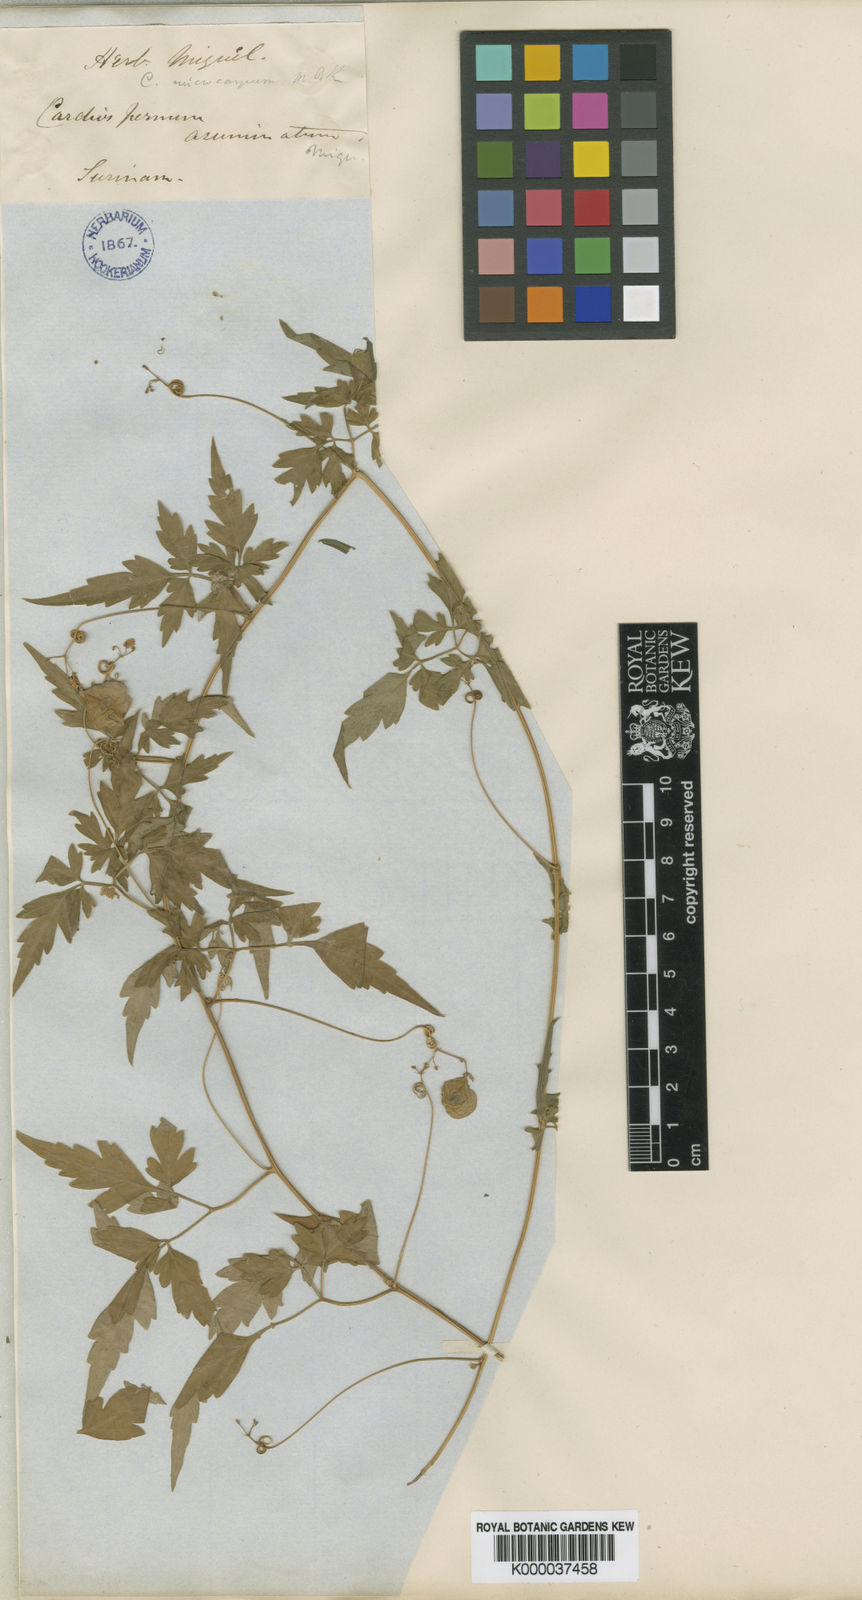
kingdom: Plantae
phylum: Tracheophyta
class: Magnoliopsida
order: Sapindales
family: Sapindaceae
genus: Cardiospermum
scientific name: Cardiospermum microcarpum
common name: Heart seed
